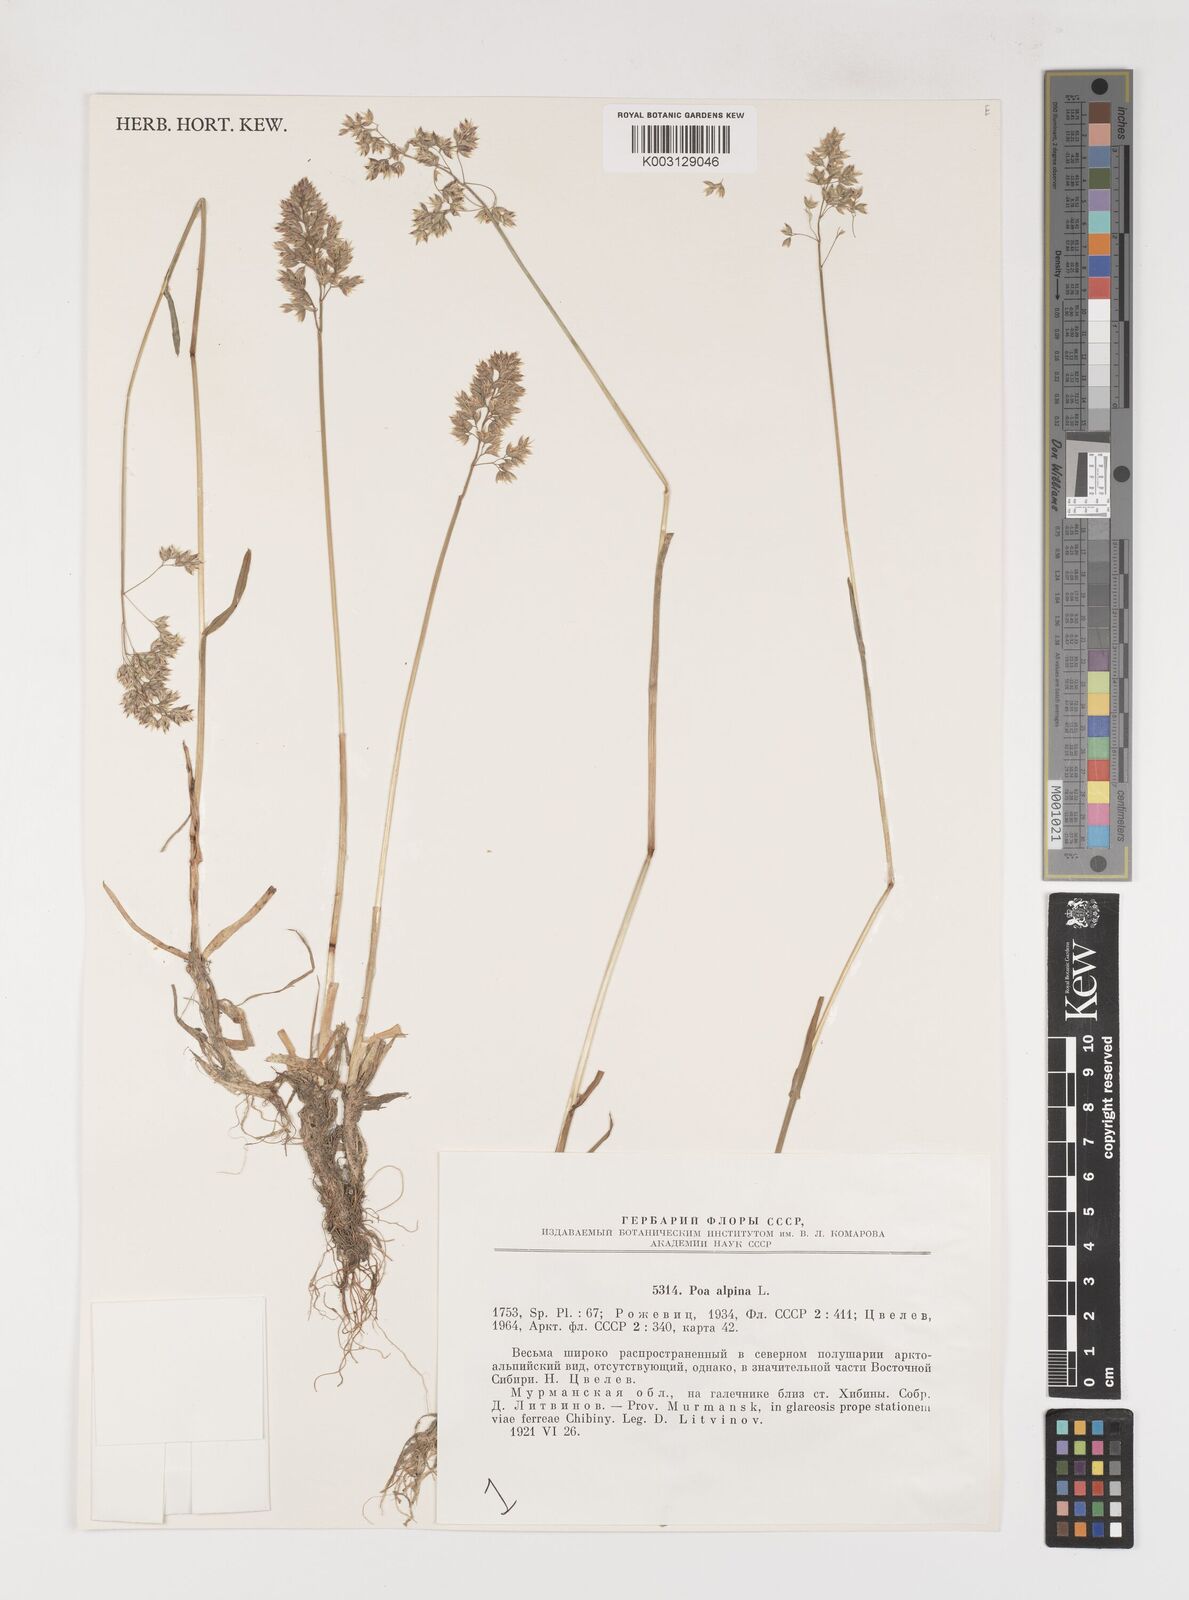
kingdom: Plantae
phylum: Tracheophyta
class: Liliopsida
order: Poales
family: Poaceae
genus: Poa
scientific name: Poa alpina
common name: Alpine bluegrass
